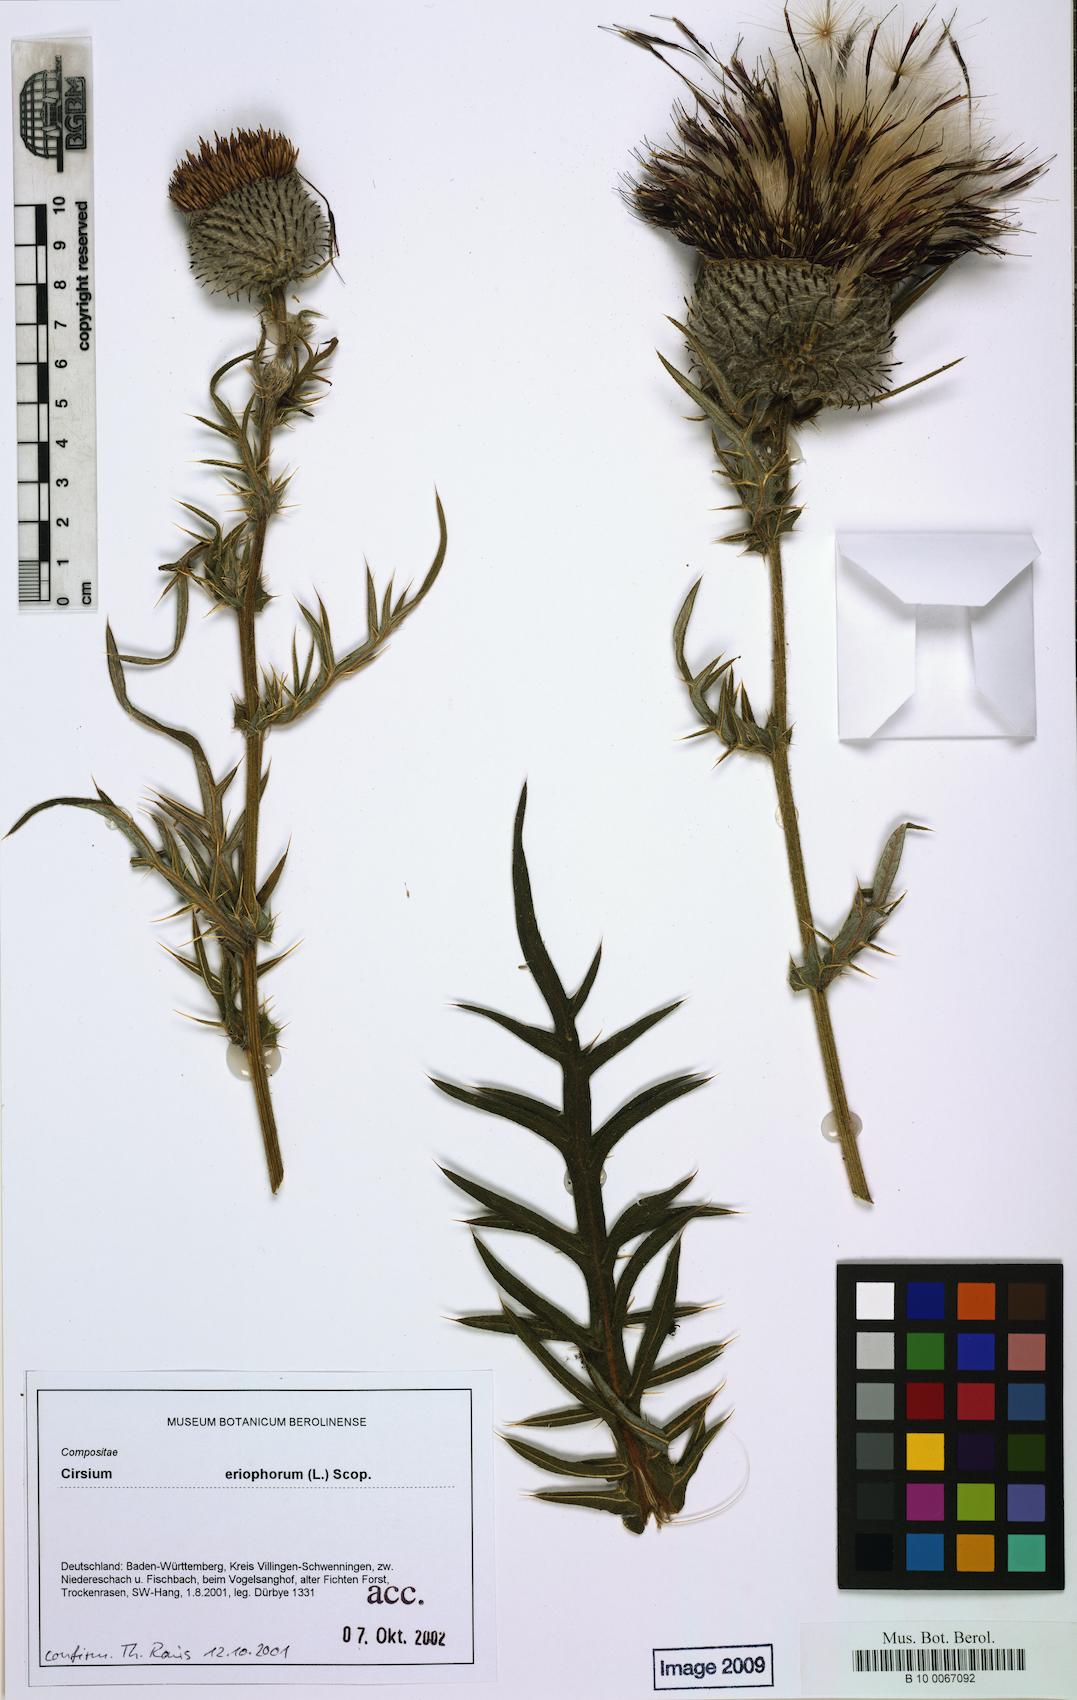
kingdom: Plantae
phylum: Tracheophyta
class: Magnoliopsida
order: Asterales
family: Asteraceae
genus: Lophiolepis
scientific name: Lophiolepis eriophora
